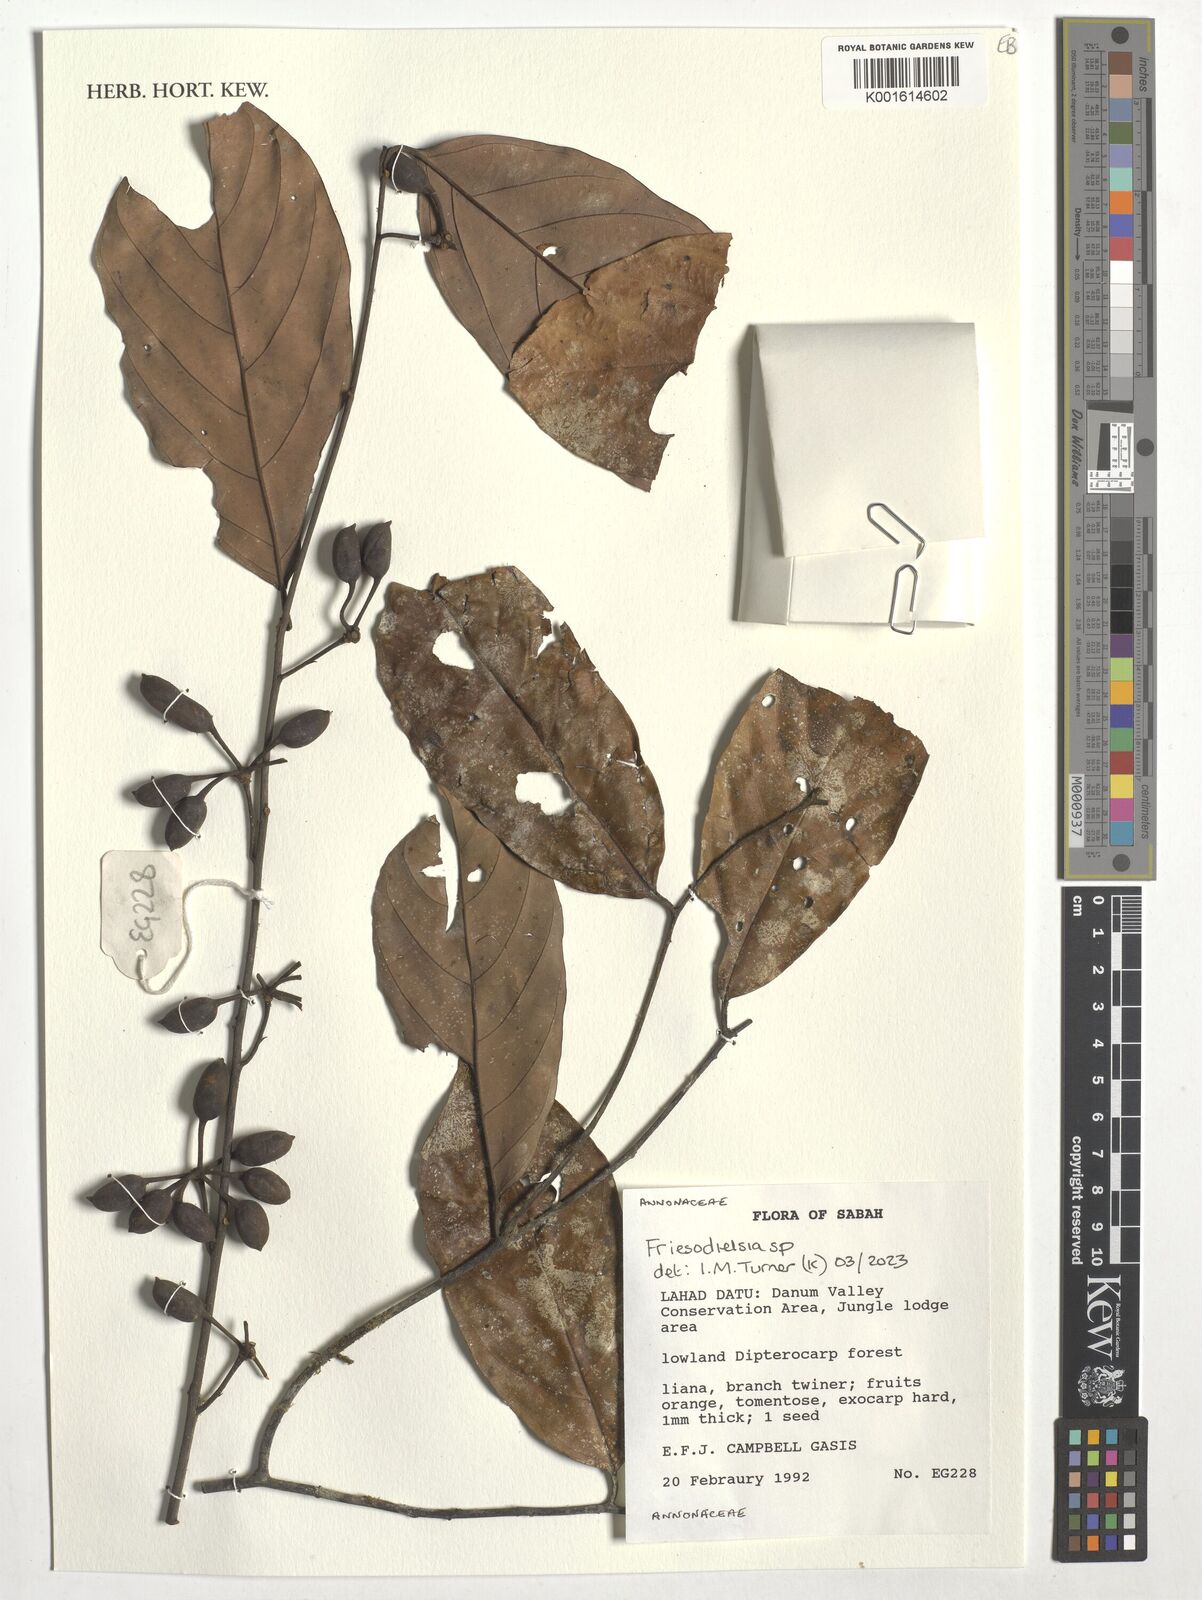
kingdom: Plantae
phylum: Tracheophyta
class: Magnoliopsida
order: Magnoliales
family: Annonaceae
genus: Friesodielsia
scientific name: Friesodielsia
